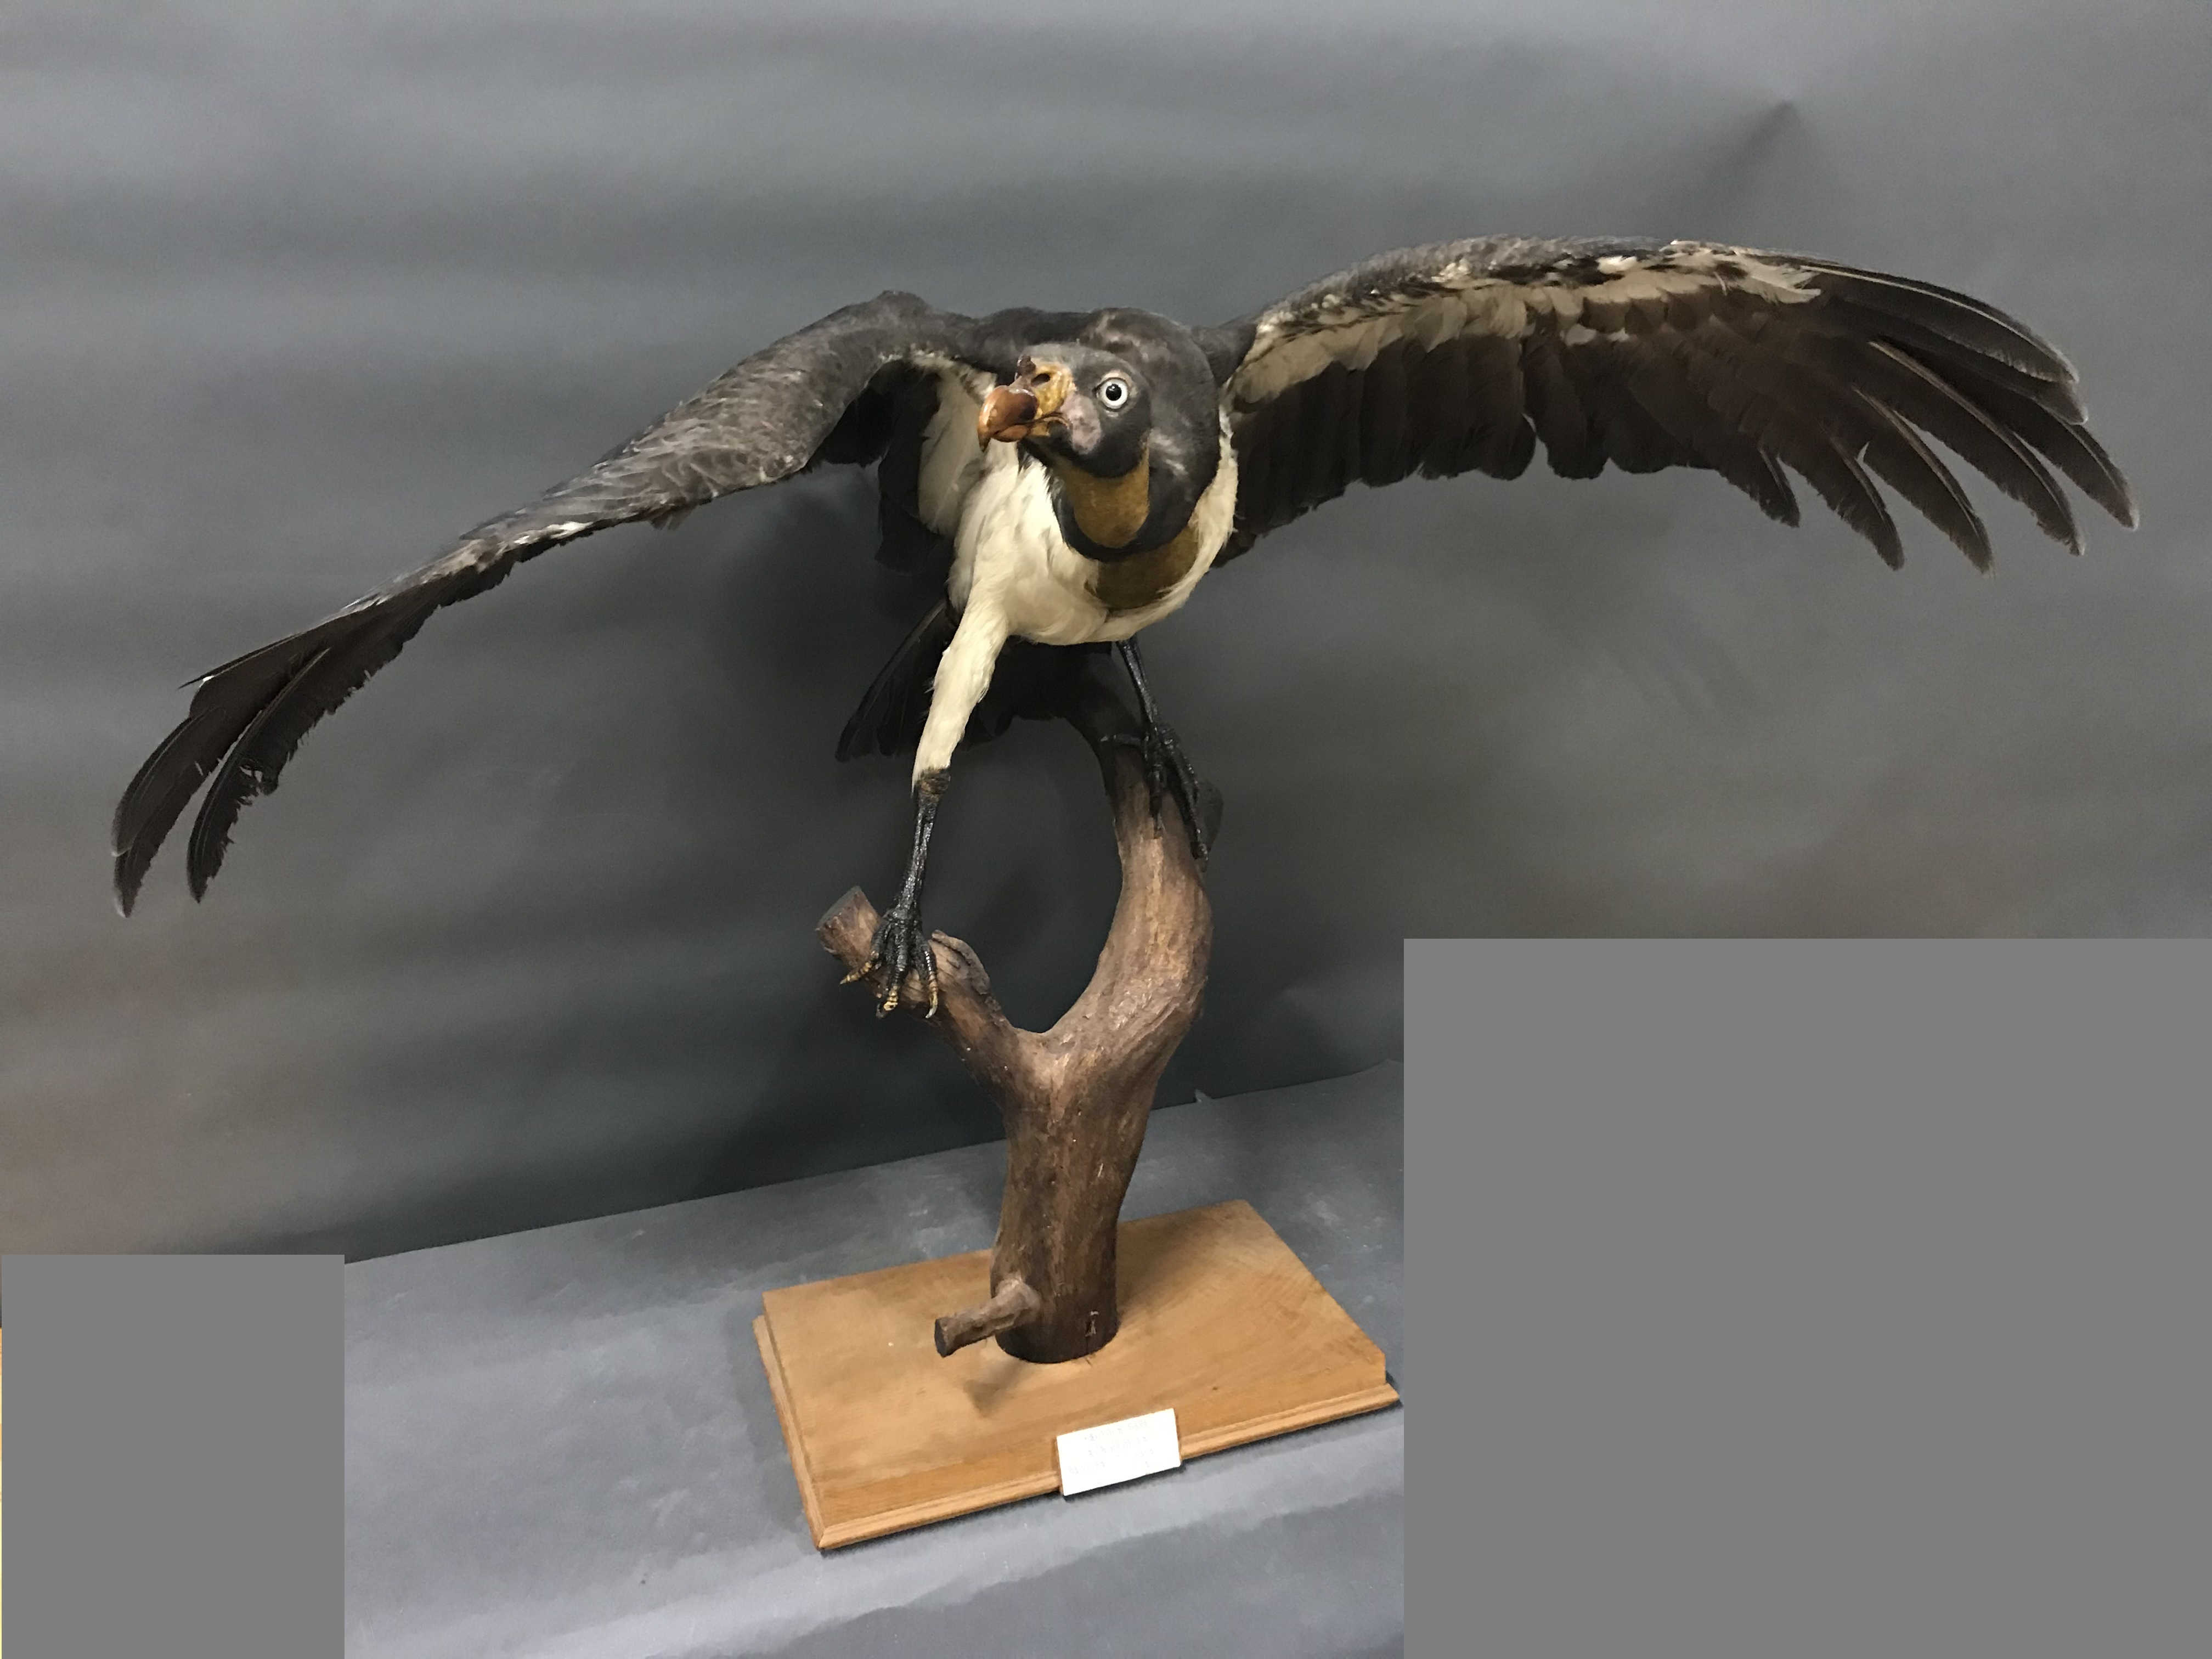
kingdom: Animalia
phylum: Chordata
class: Aves
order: Accipitriformes
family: Cathartidae
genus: Sarcoramphus
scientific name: Sarcoramphus papa
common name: King vulture
